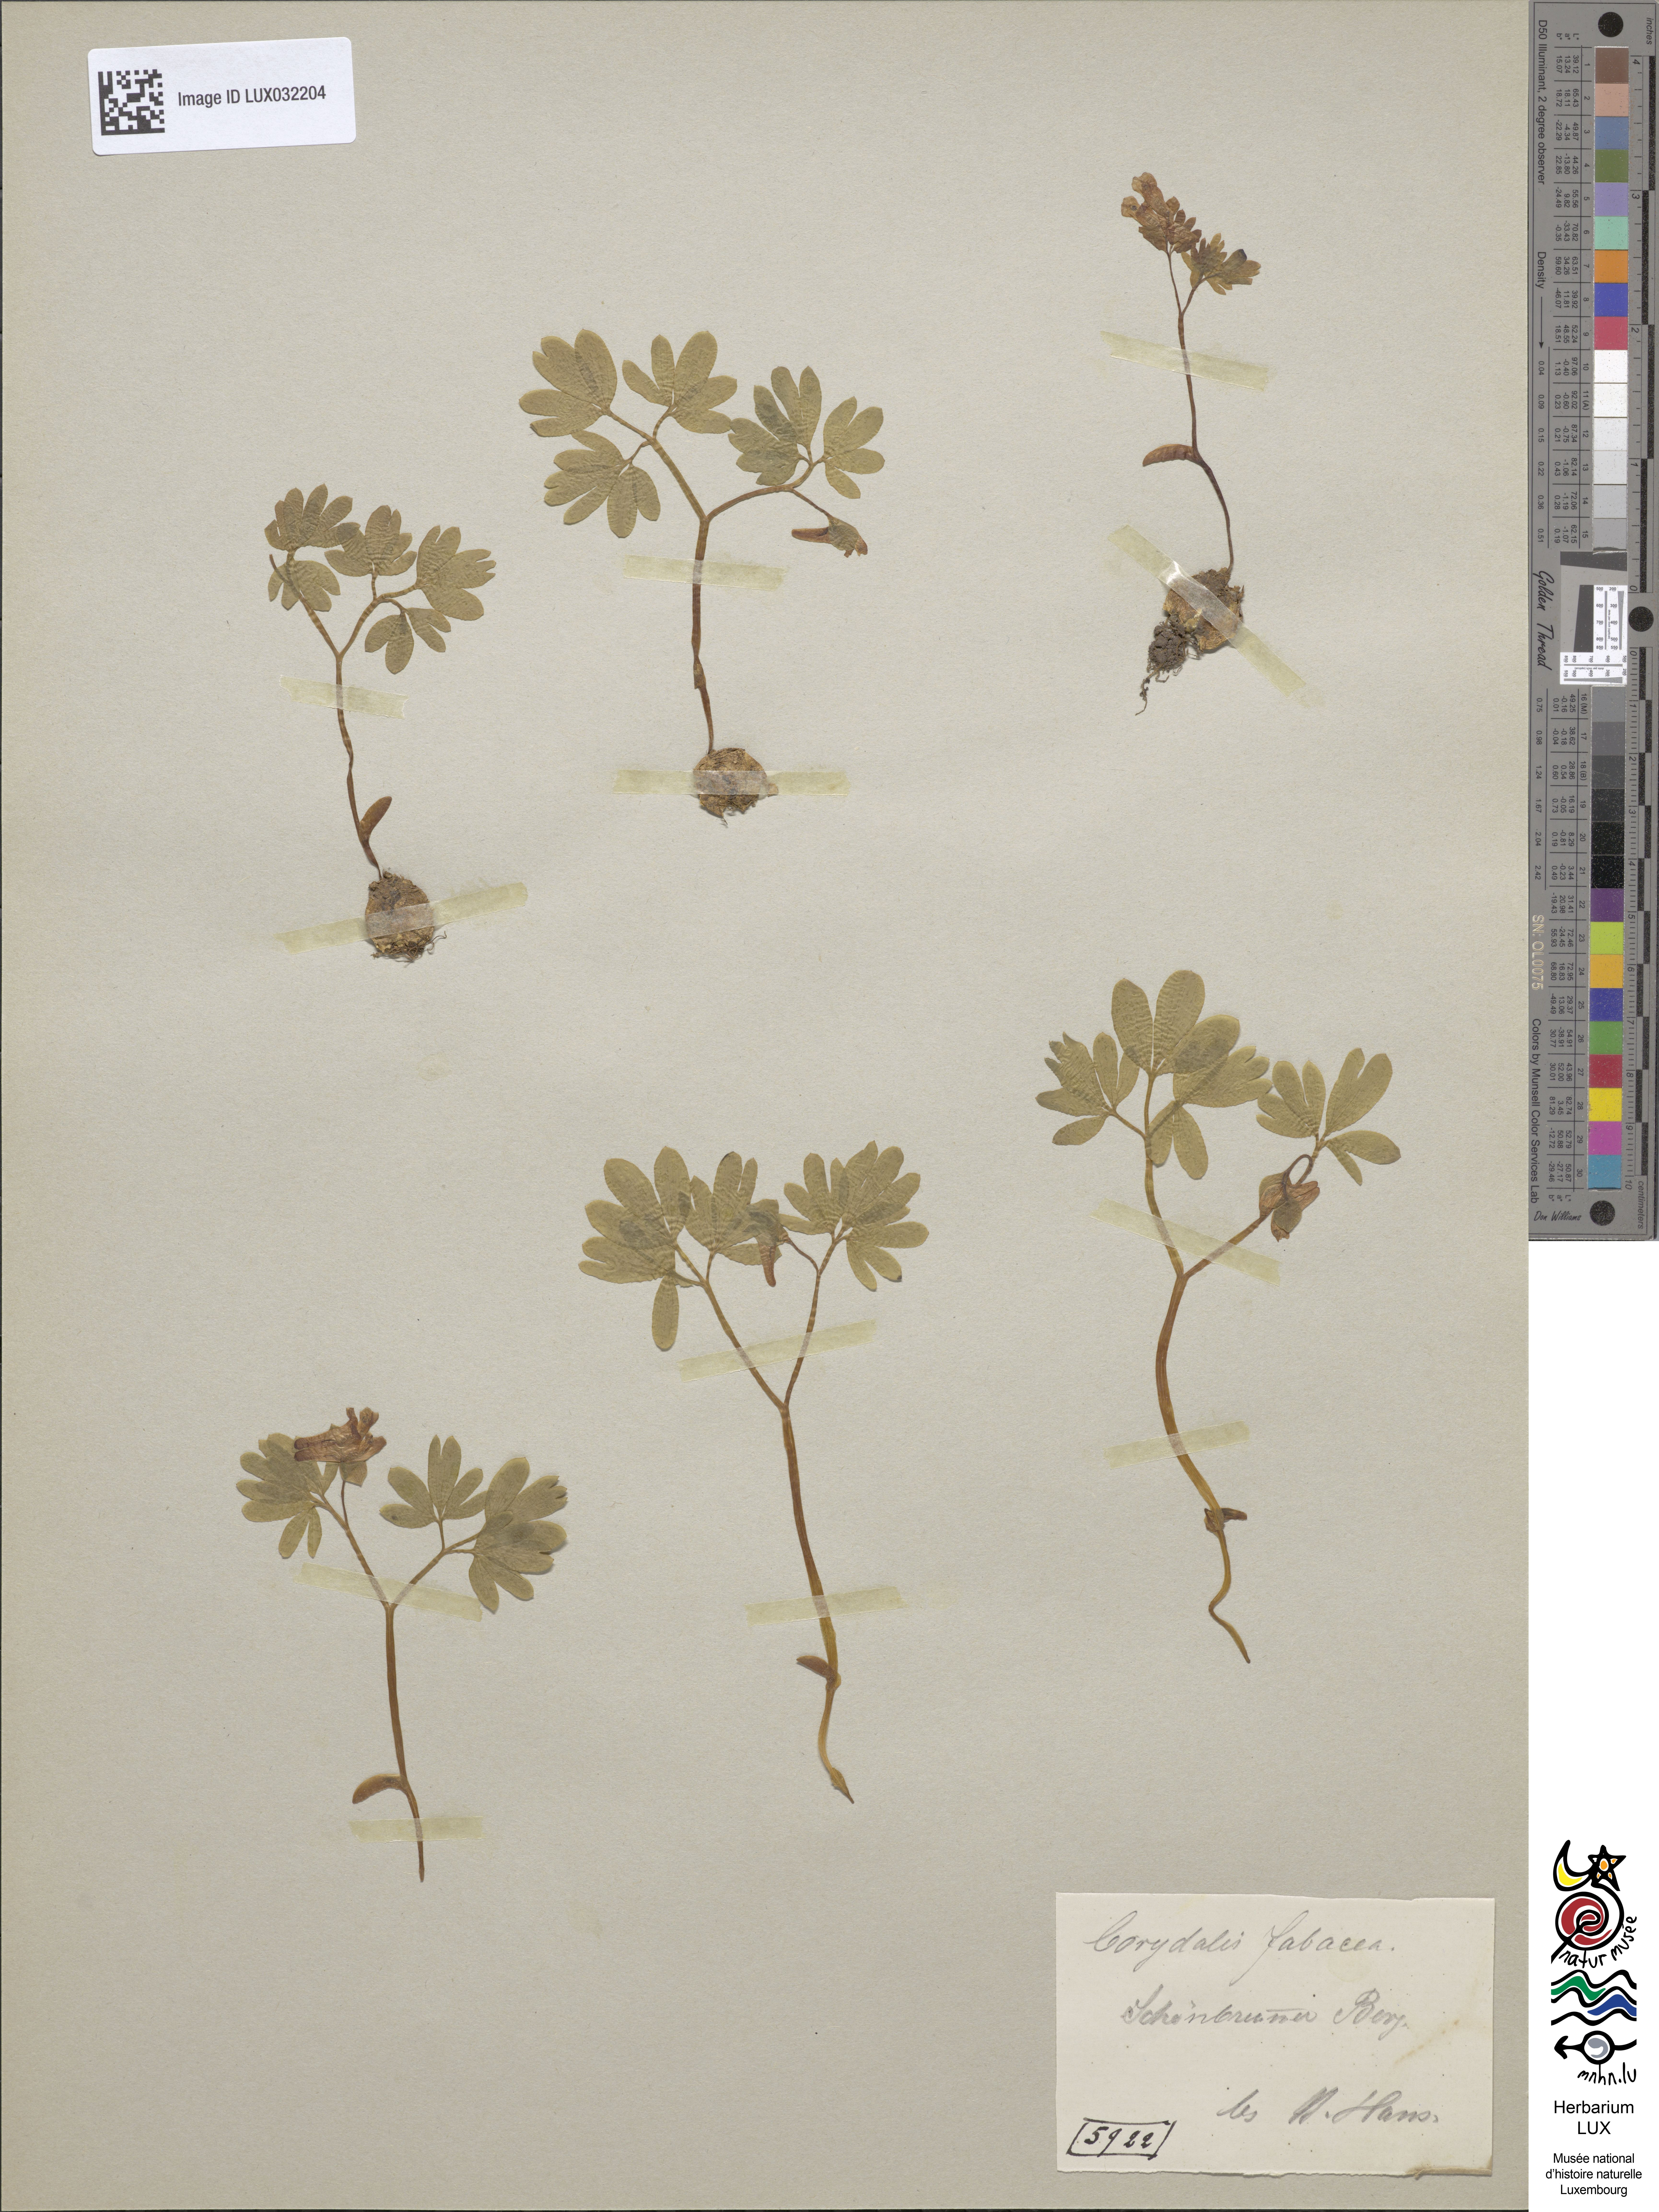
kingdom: Plantae
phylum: Tracheophyta
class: Magnoliopsida
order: Ranunculales
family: Papaveraceae
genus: Corydalis
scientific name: Corydalis intermedia
